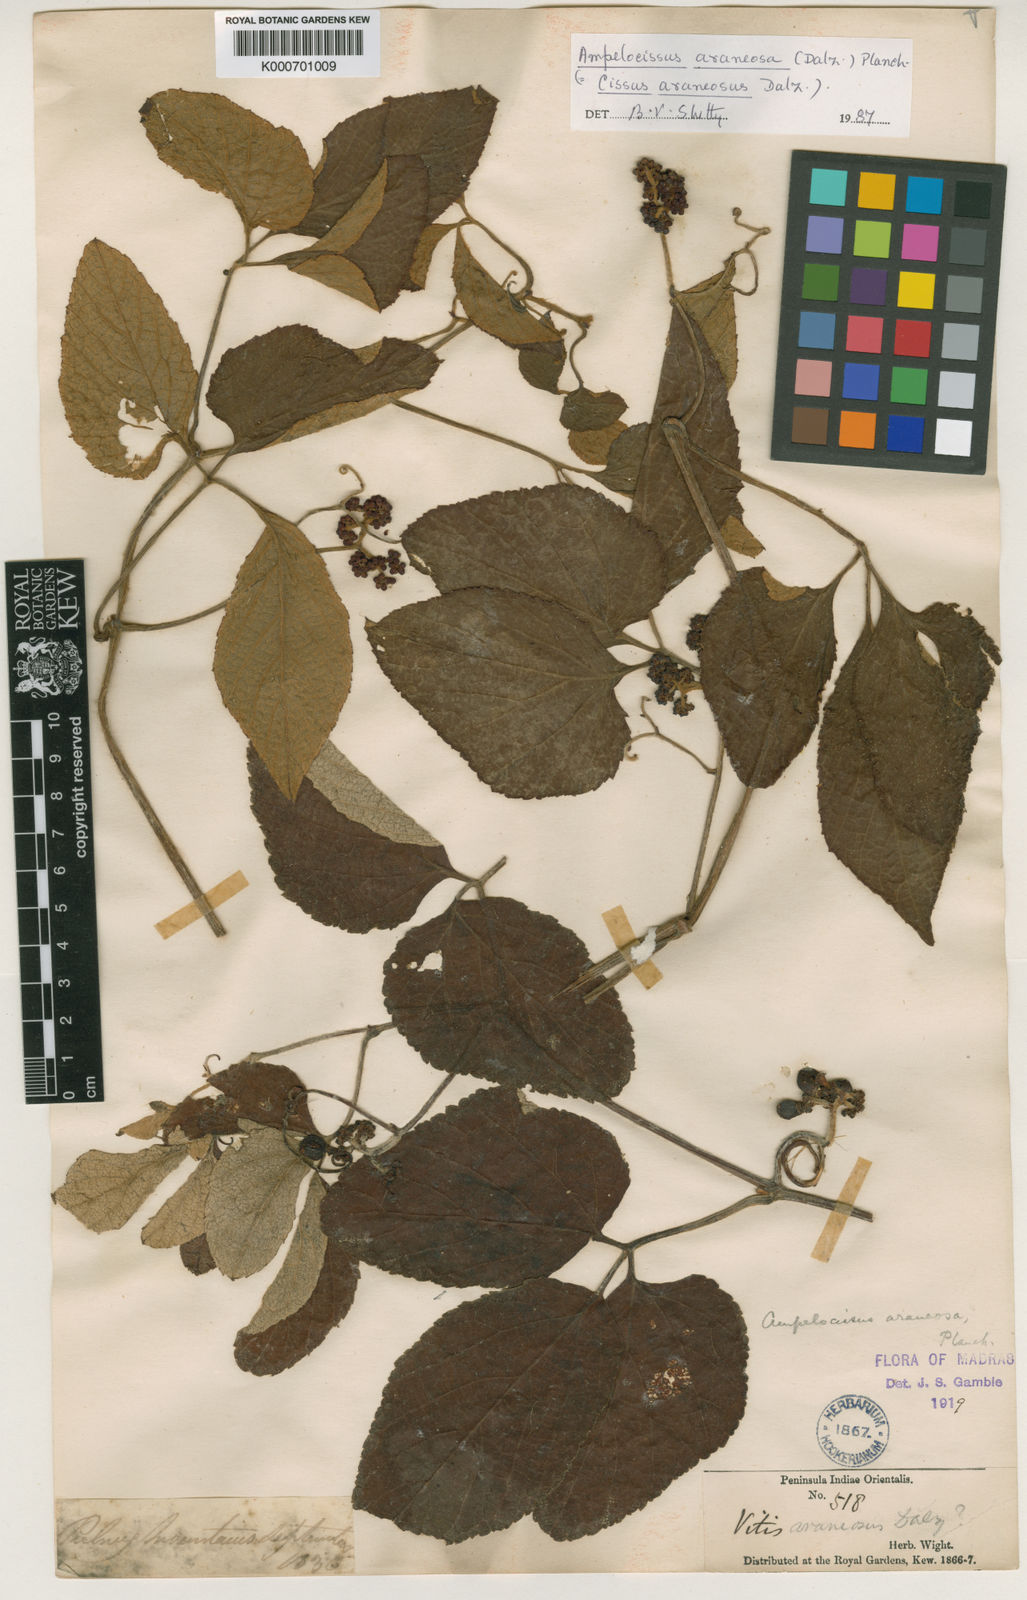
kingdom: Plantae
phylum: Tracheophyta
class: Magnoliopsida
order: Vitales
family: Vitaceae
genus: Ampelocissus
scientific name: Ampelocissus
